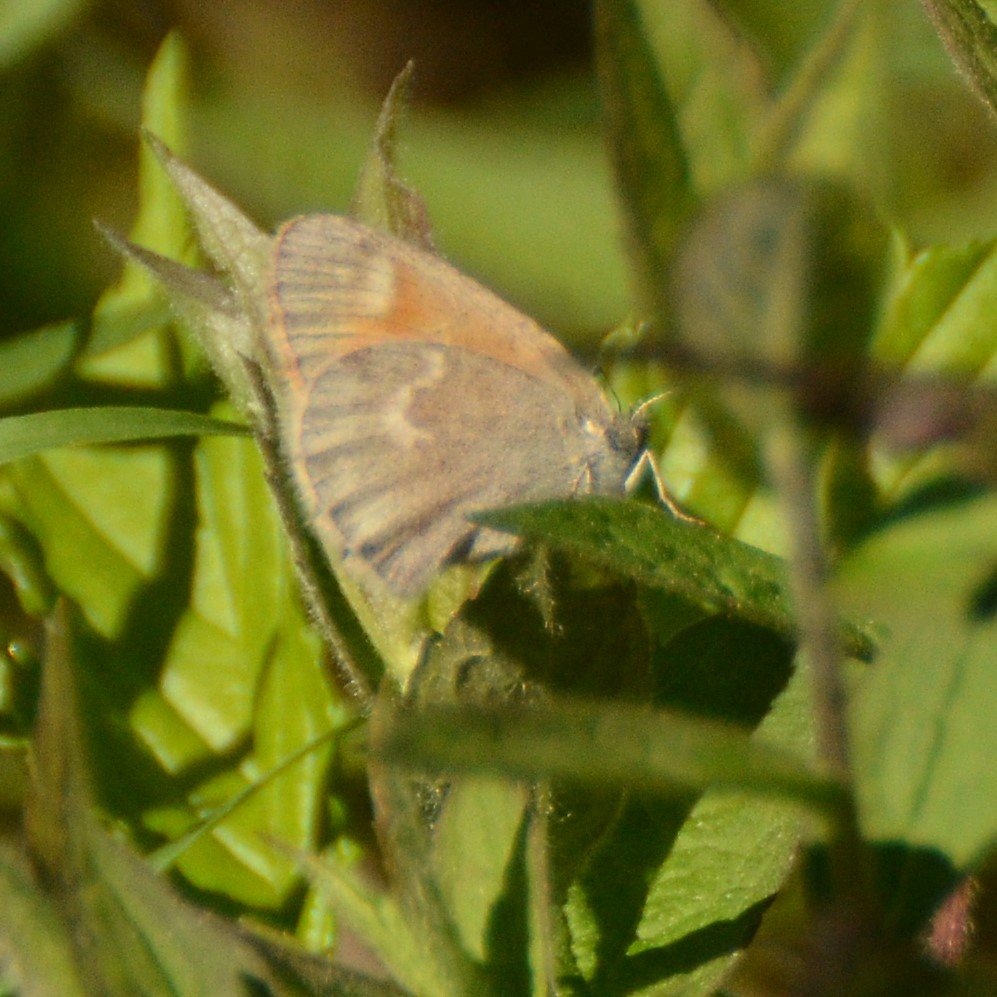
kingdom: Animalia
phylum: Arthropoda
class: Insecta
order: Lepidoptera
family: Nymphalidae
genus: Coenonympha
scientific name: Coenonympha tullia
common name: Large Heath
